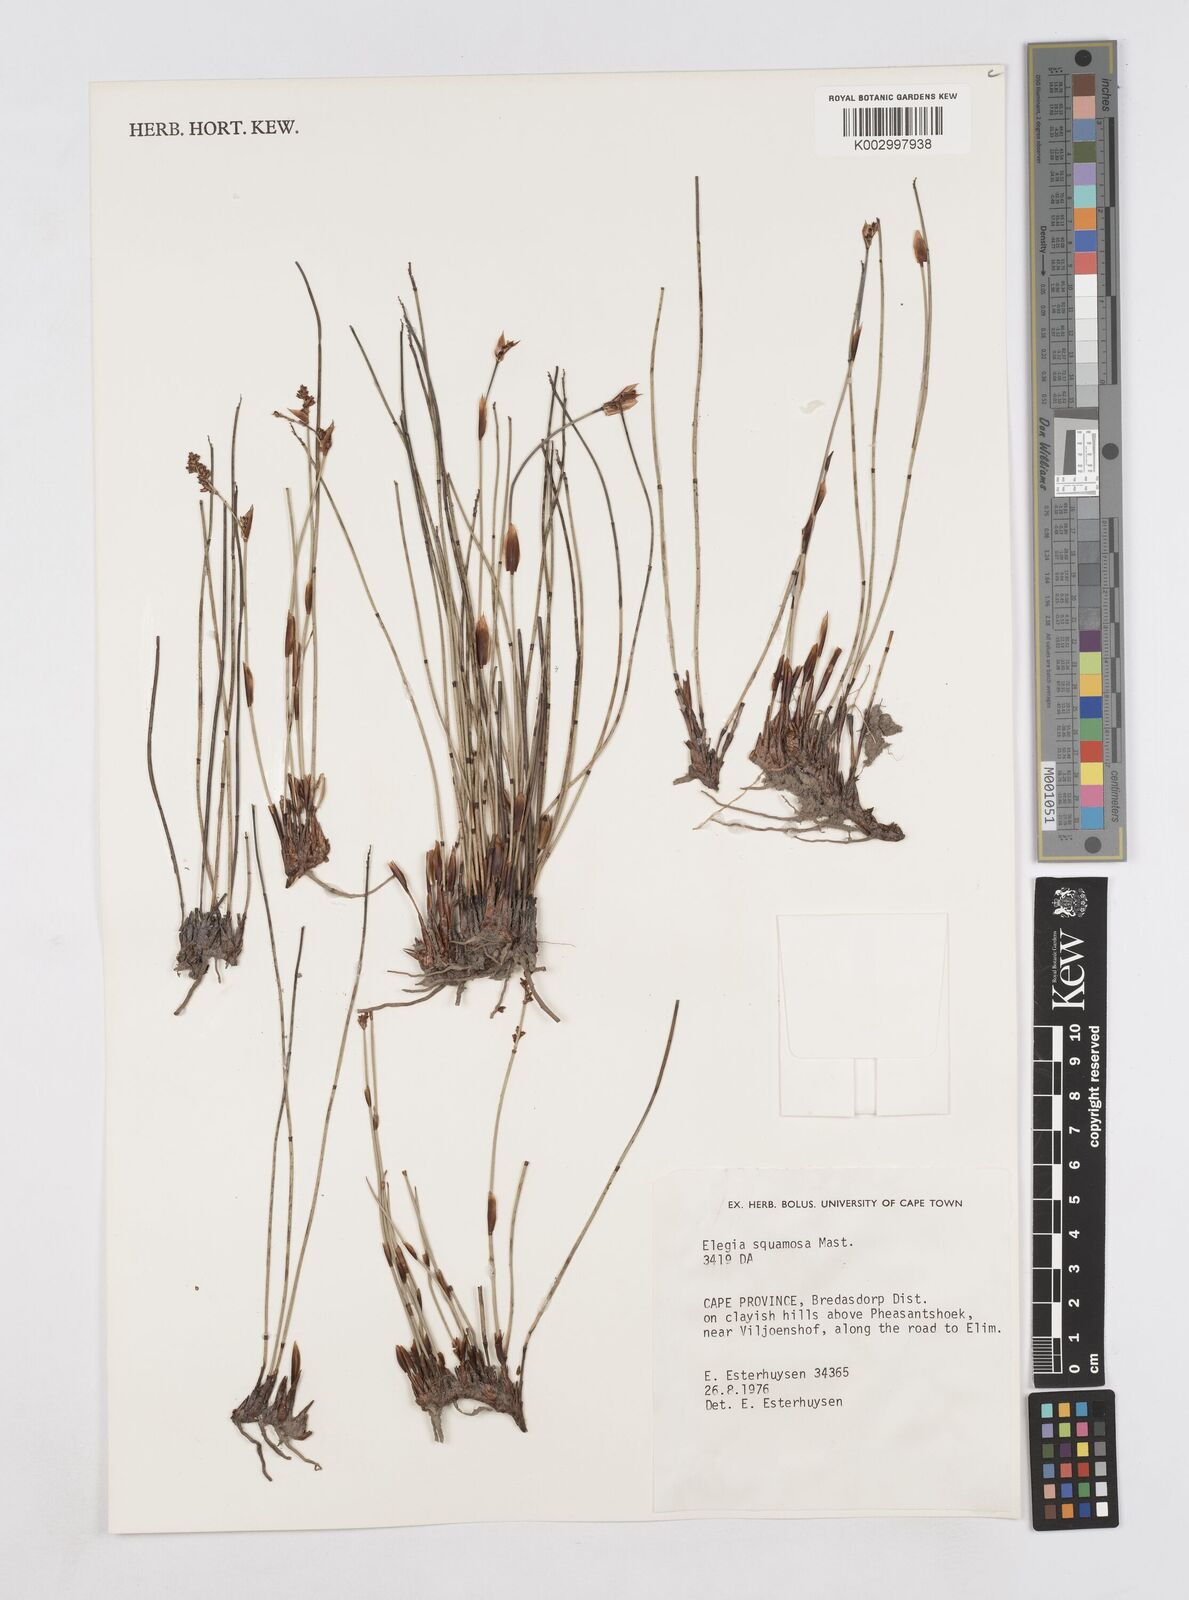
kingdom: Plantae
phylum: Tracheophyta
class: Liliopsida
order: Poales
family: Restionaceae
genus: Elegia
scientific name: Elegia squamosa
